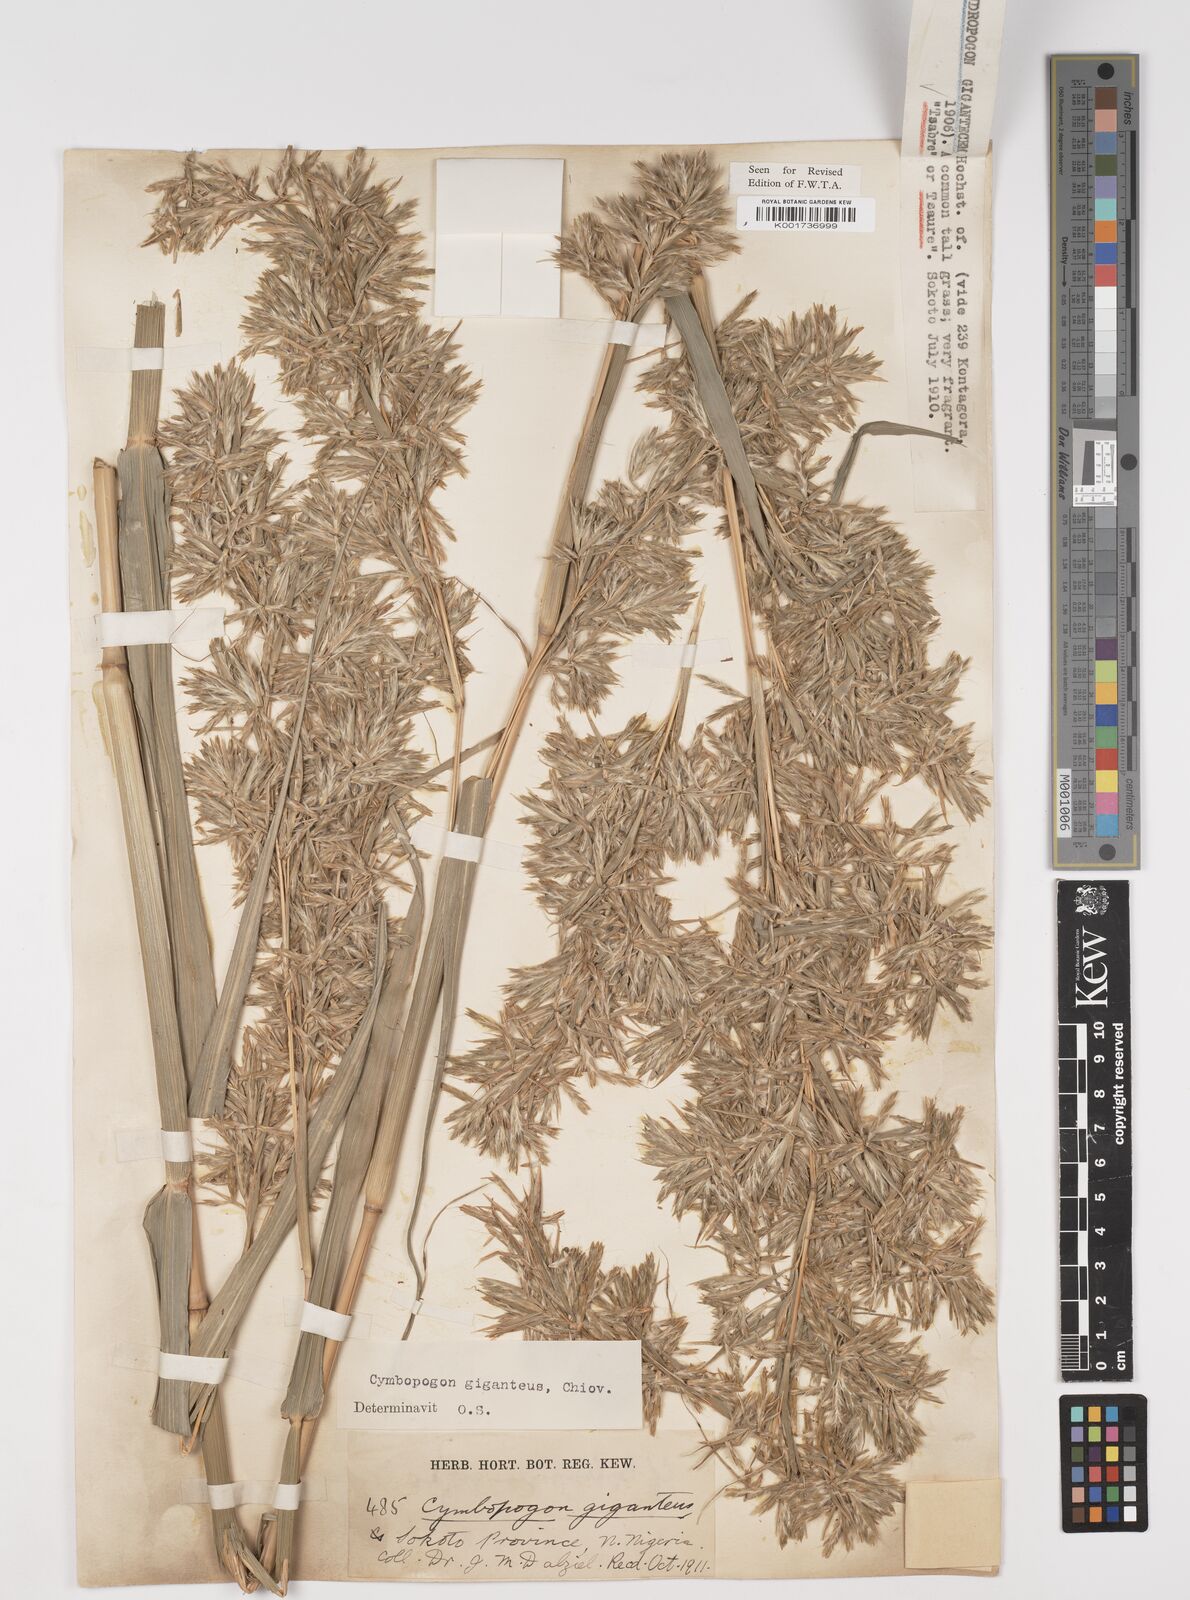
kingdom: Plantae
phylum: Tracheophyta
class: Liliopsida
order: Poales
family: Poaceae
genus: Cymbopogon
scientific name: Cymbopogon giganteus
